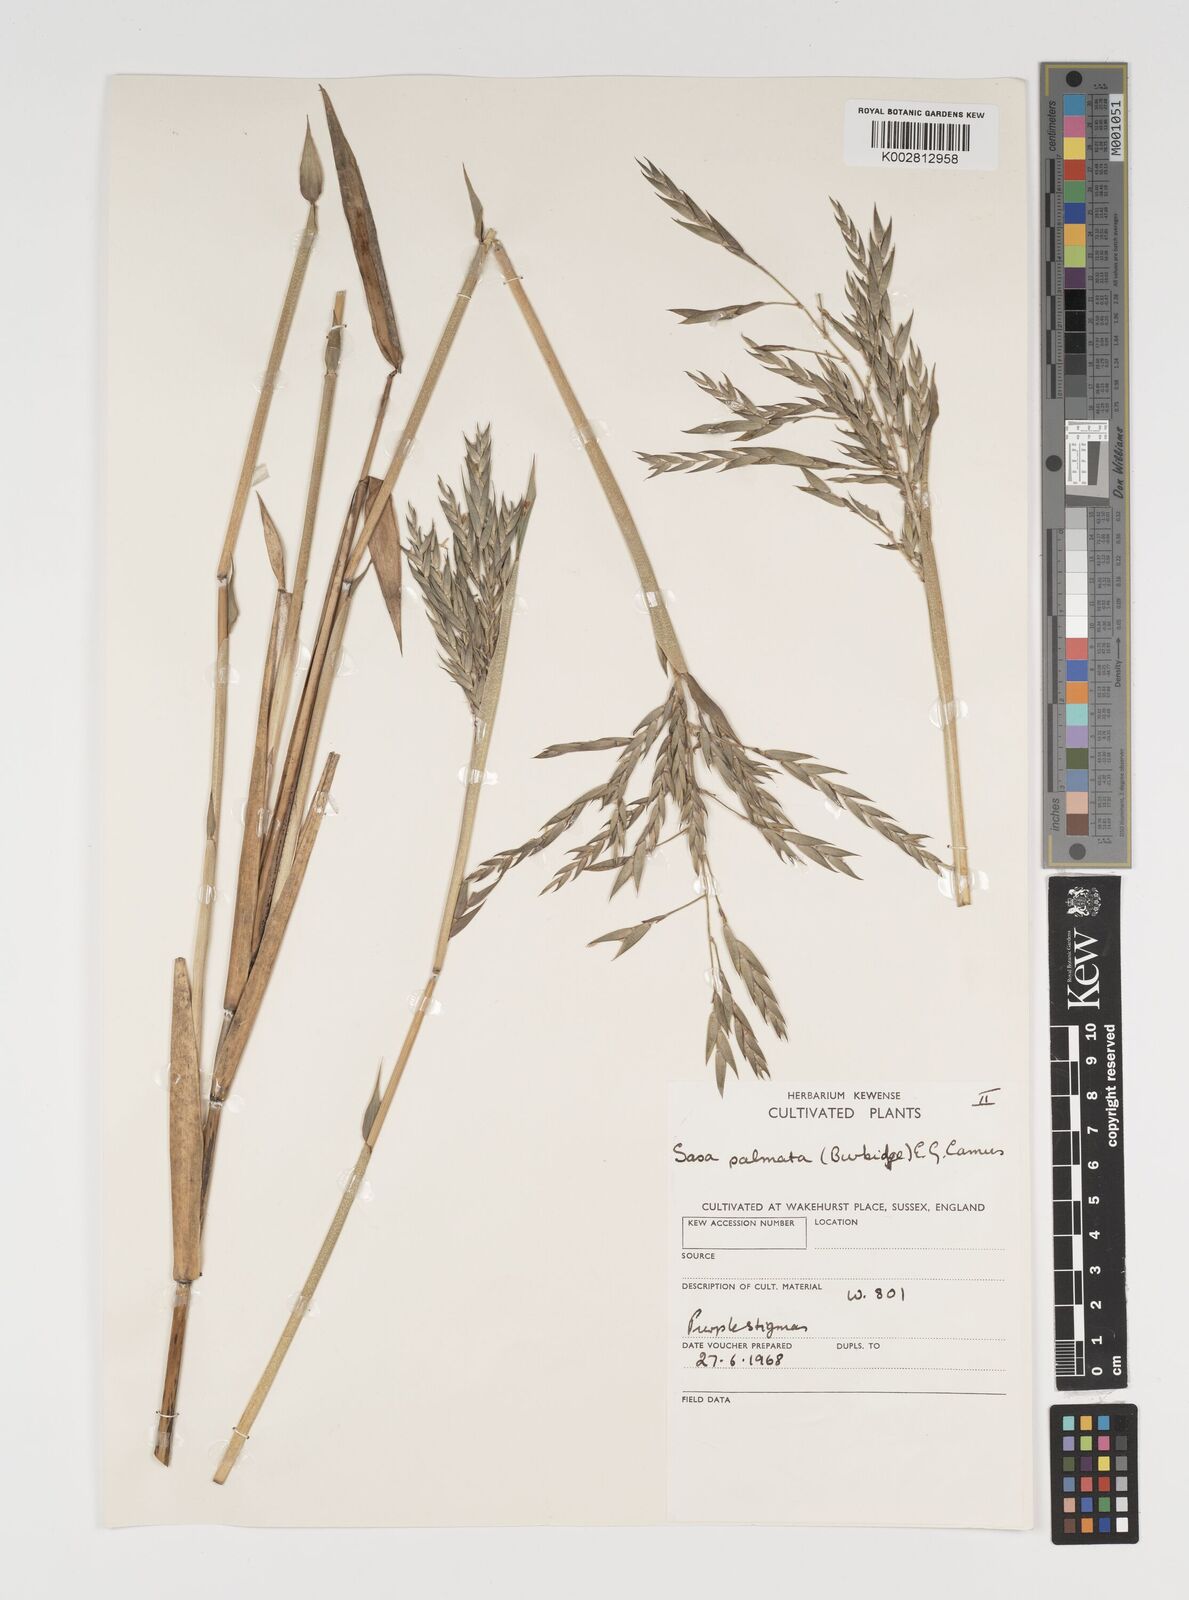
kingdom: Plantae
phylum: Tracheophyta
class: Liliopsida
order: Poales
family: Poaceae
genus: Sasa
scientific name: Sasa palmata
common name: Broad-leaved bamboo
